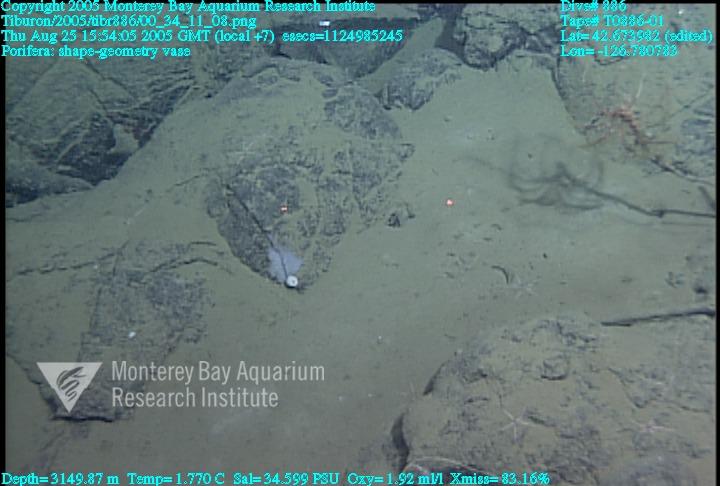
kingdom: Animalia
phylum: Porifera
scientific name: Porifera
